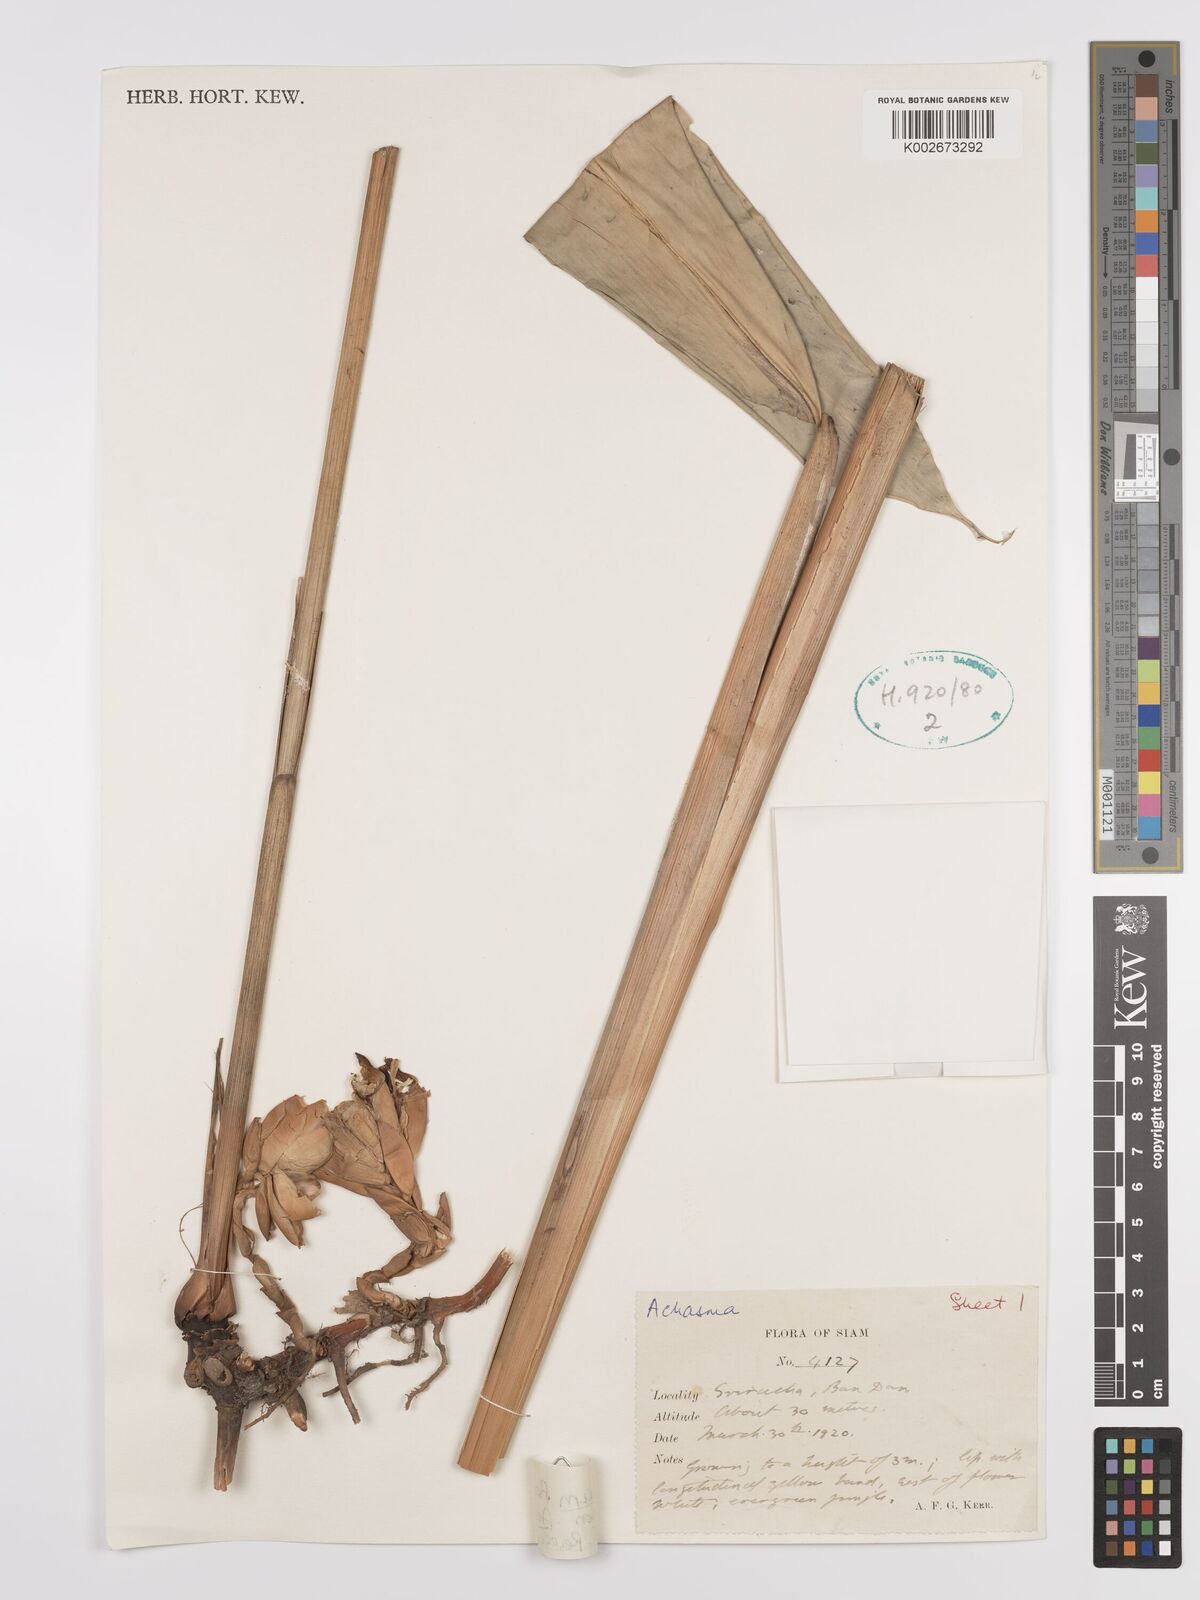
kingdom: Plantae
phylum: Tracheophyta
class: Liliopsida
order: Zingiberales
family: Zingiberaceae
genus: Amomum
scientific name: Amomum
